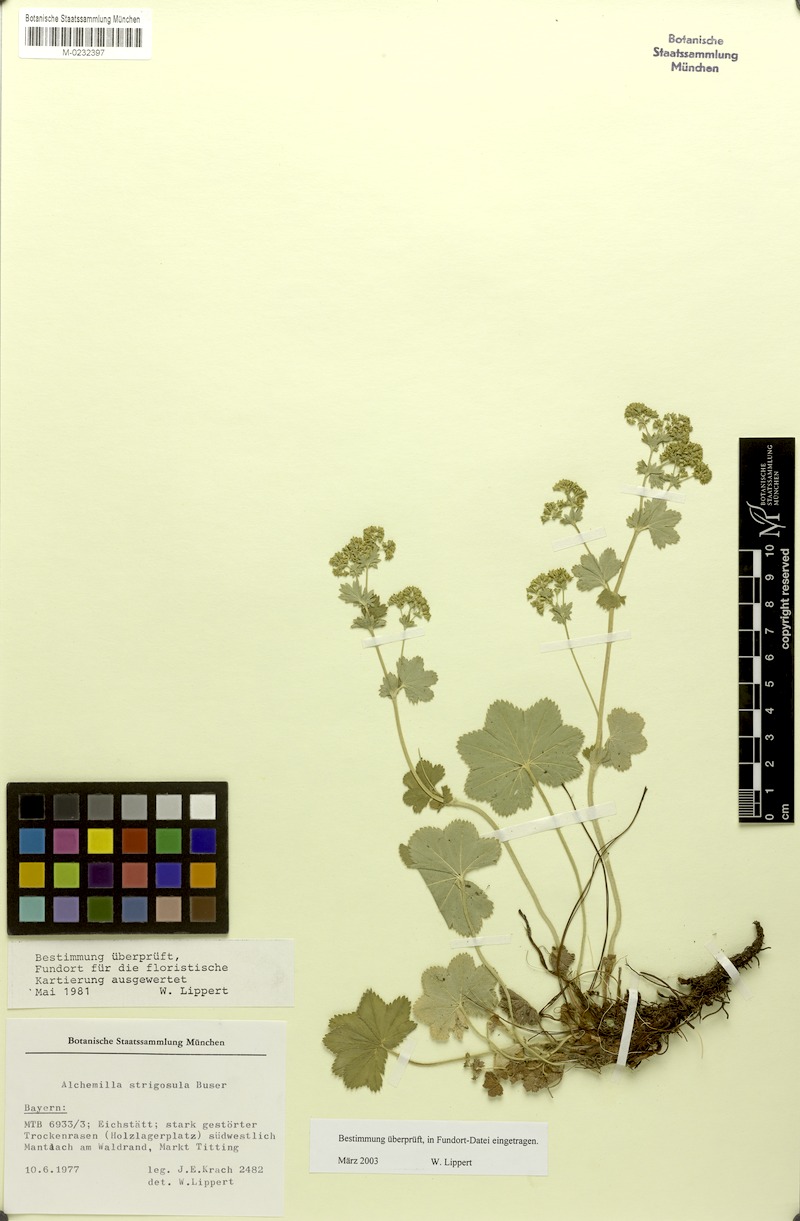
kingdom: Plantae
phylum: Tracheophyta
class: Magnoliopsida
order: Rosales
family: Rosaceae
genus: Alchemilla
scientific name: Alchemilla strigosula
